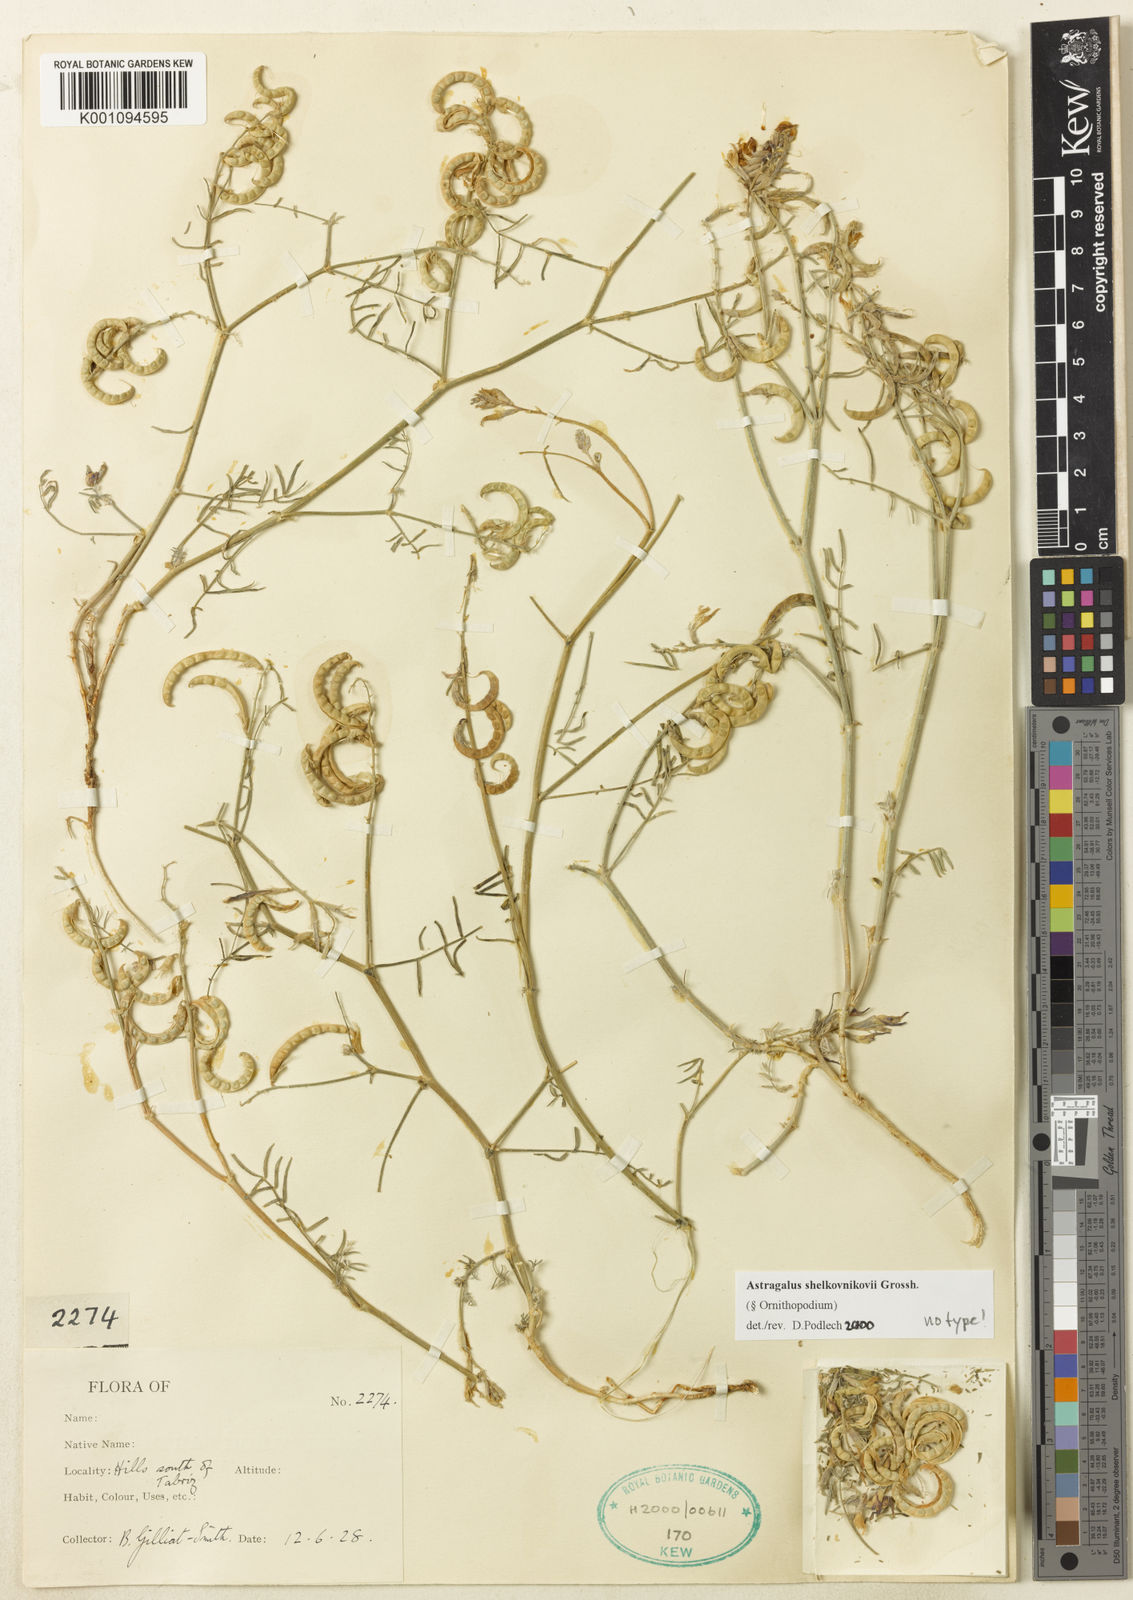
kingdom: Plantae
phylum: Tracheophyta
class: Magnoliopsida
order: Fabales
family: Fabaceae
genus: Astragalus
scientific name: Astragalus
